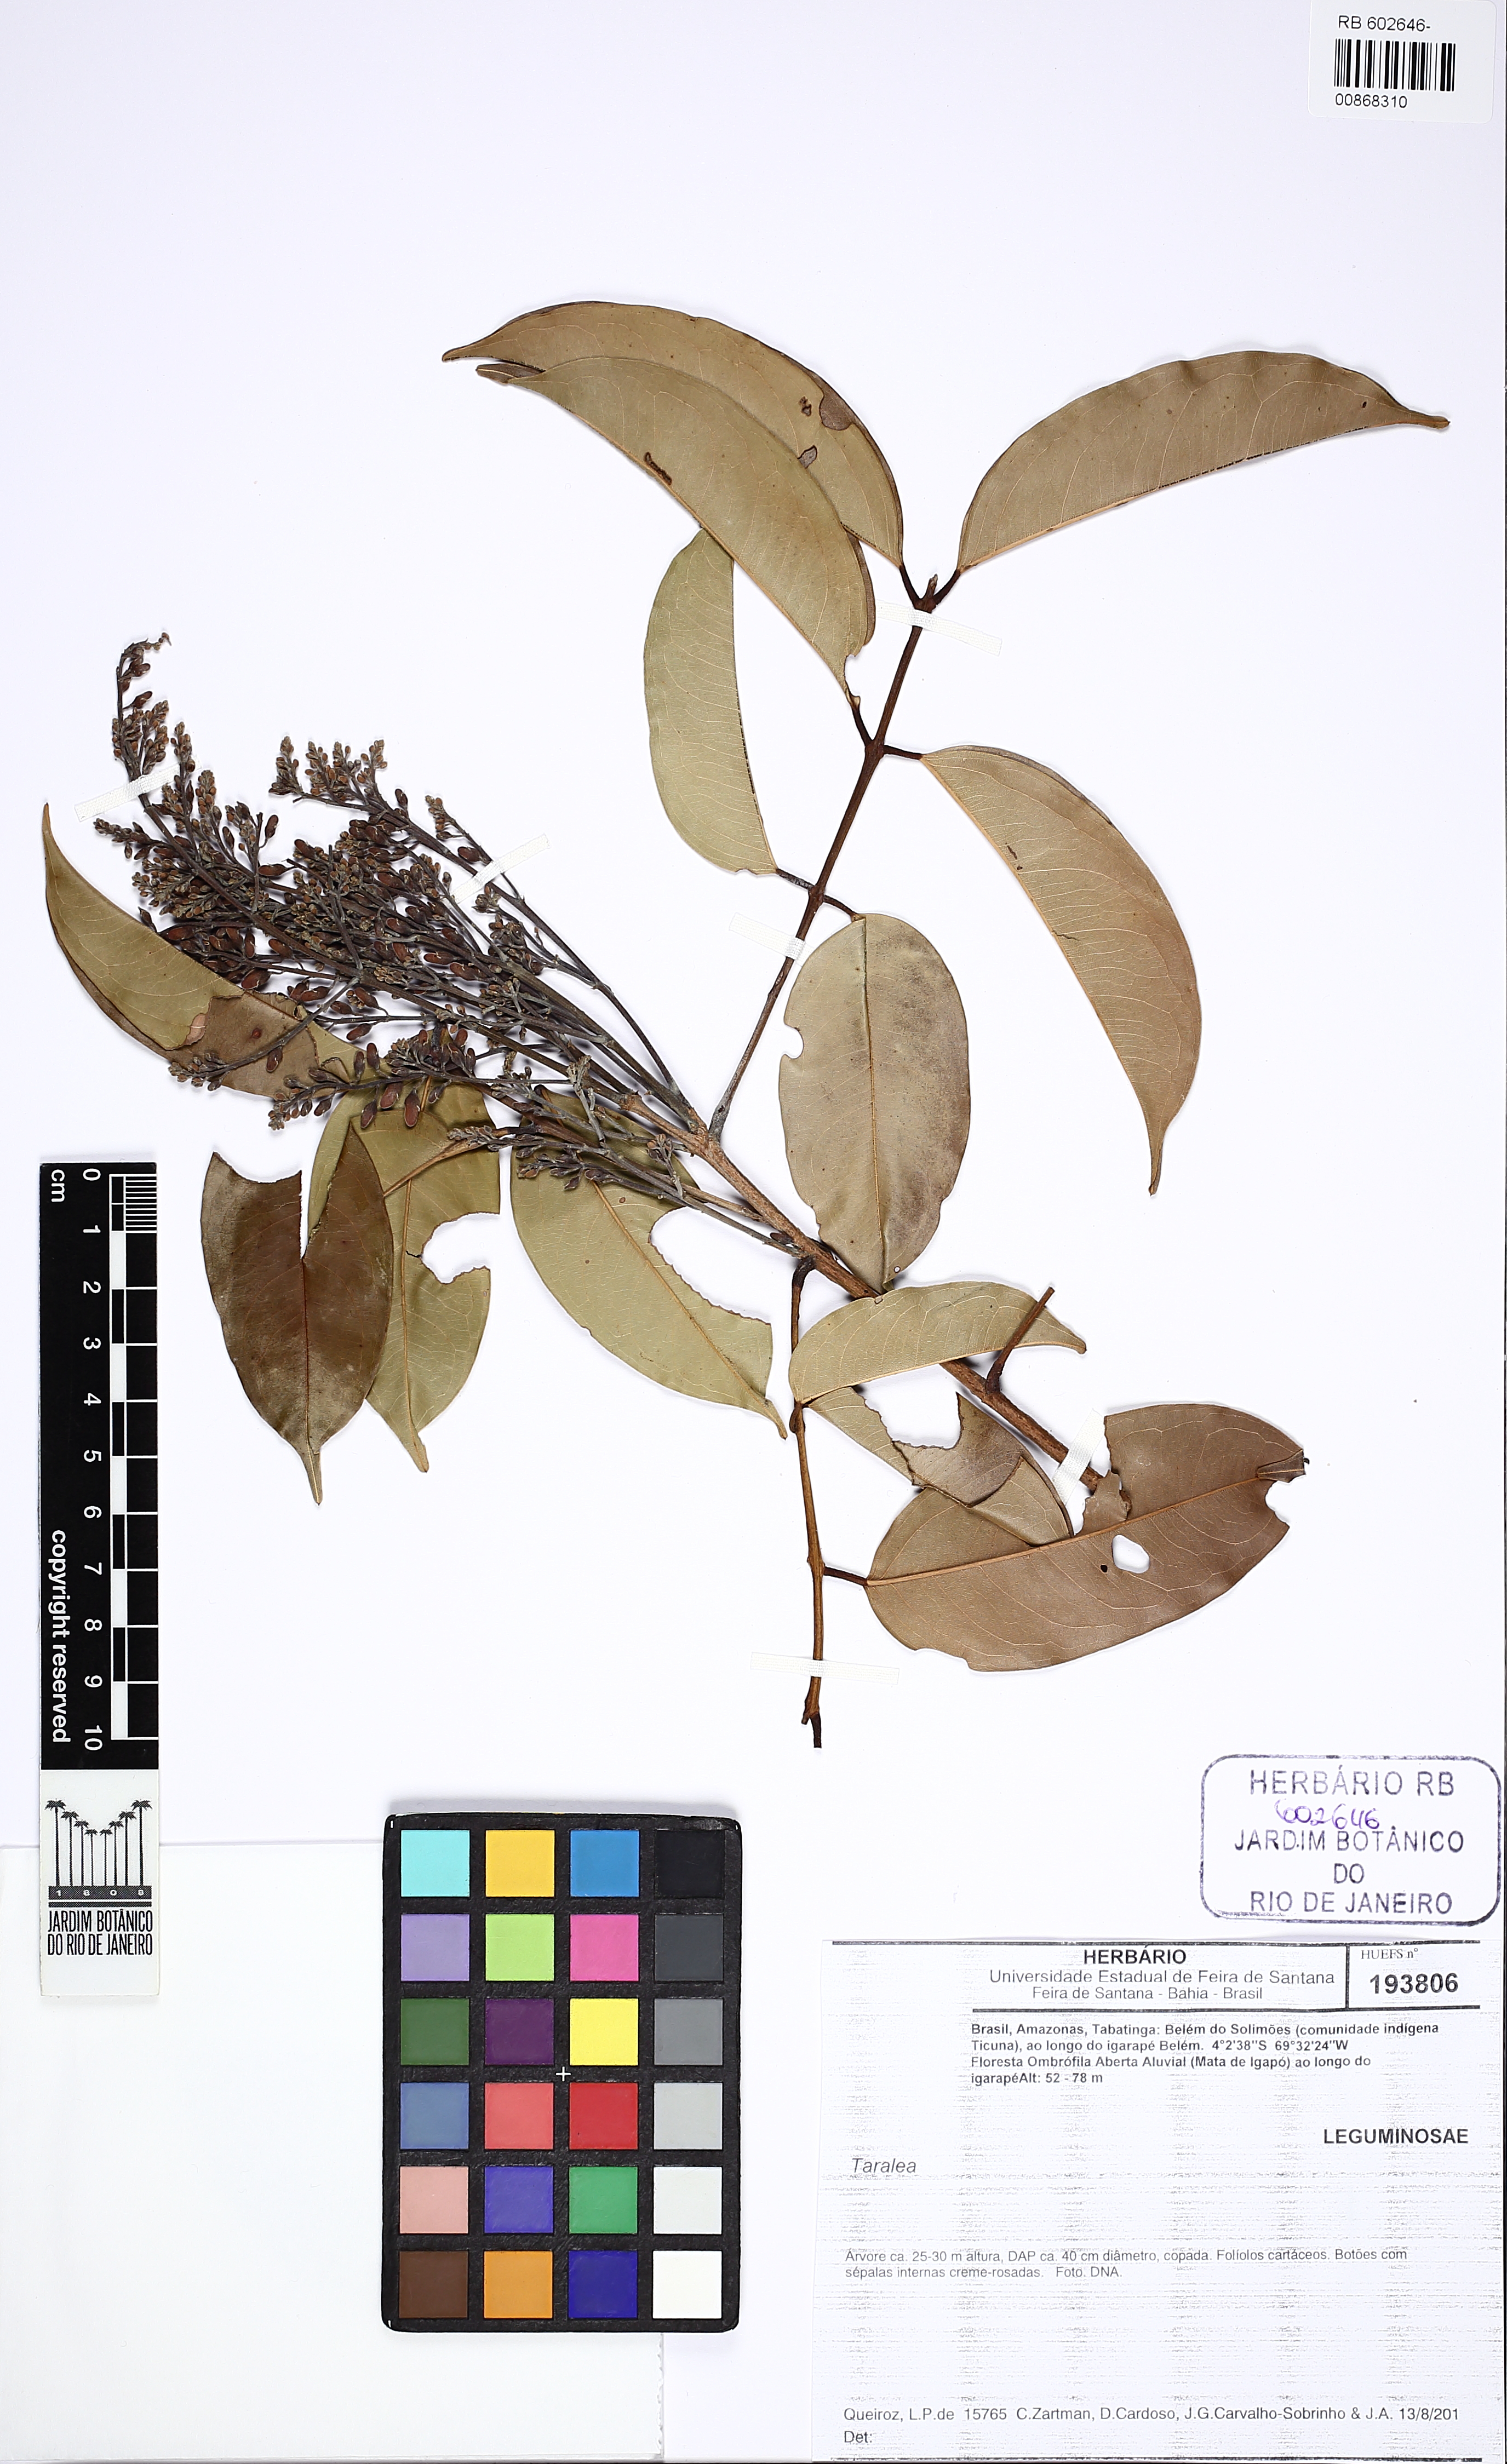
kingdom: Plantae
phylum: Tracheophyta
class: Magnoliopsida
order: Fabales
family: Fabaceae
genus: Taralea
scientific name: Taralea
